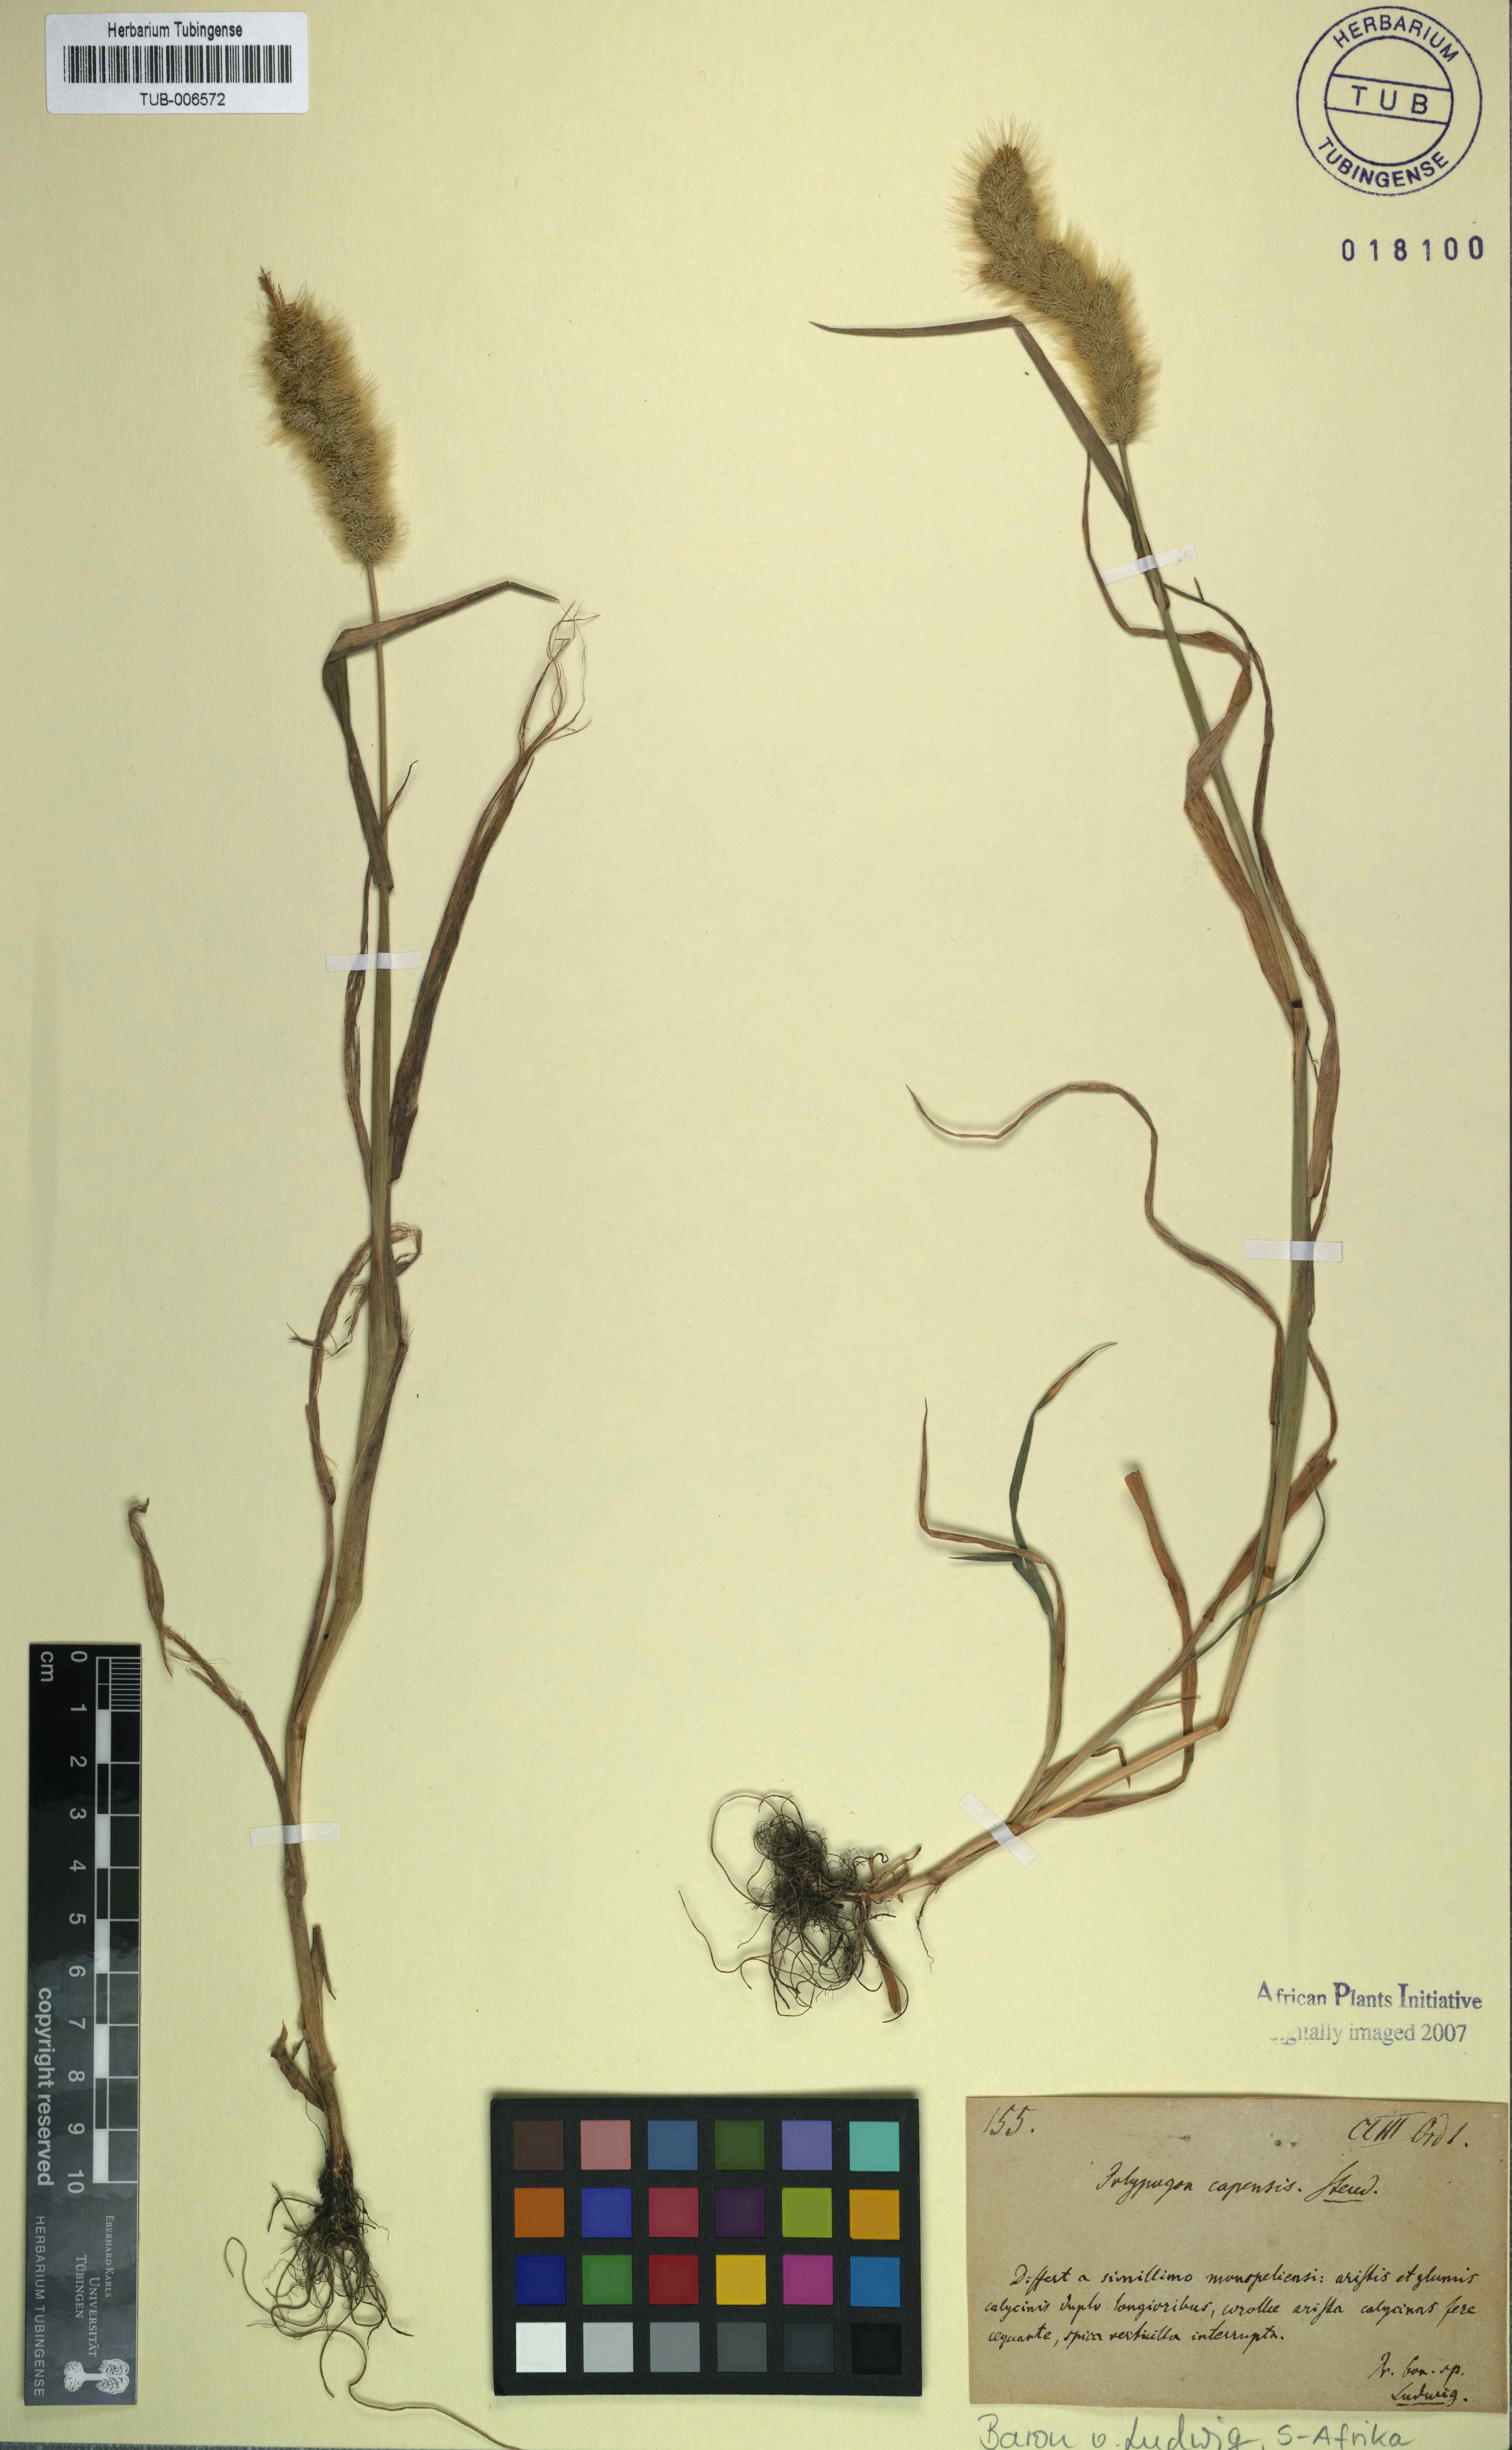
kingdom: Plantae
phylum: Tracheophyta
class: Liliopsida
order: Poales
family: Poaceae
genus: Pentameris
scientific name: Pentameris pallida
